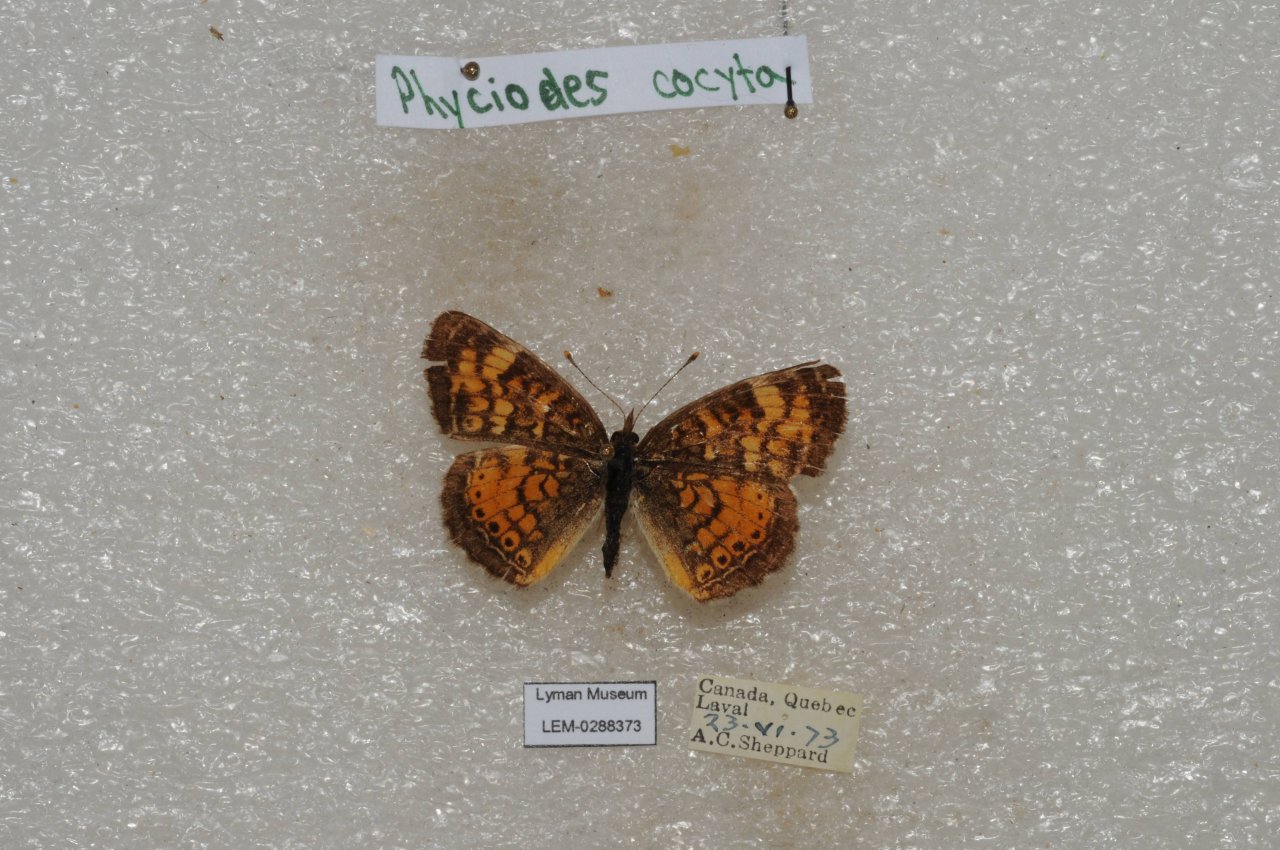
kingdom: Animalia
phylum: Arthropoda
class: Insecta
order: Lepidoptera
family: Nymphalidae
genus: Phyciodes
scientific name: Phyciodes tharos
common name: Northern Crescent
